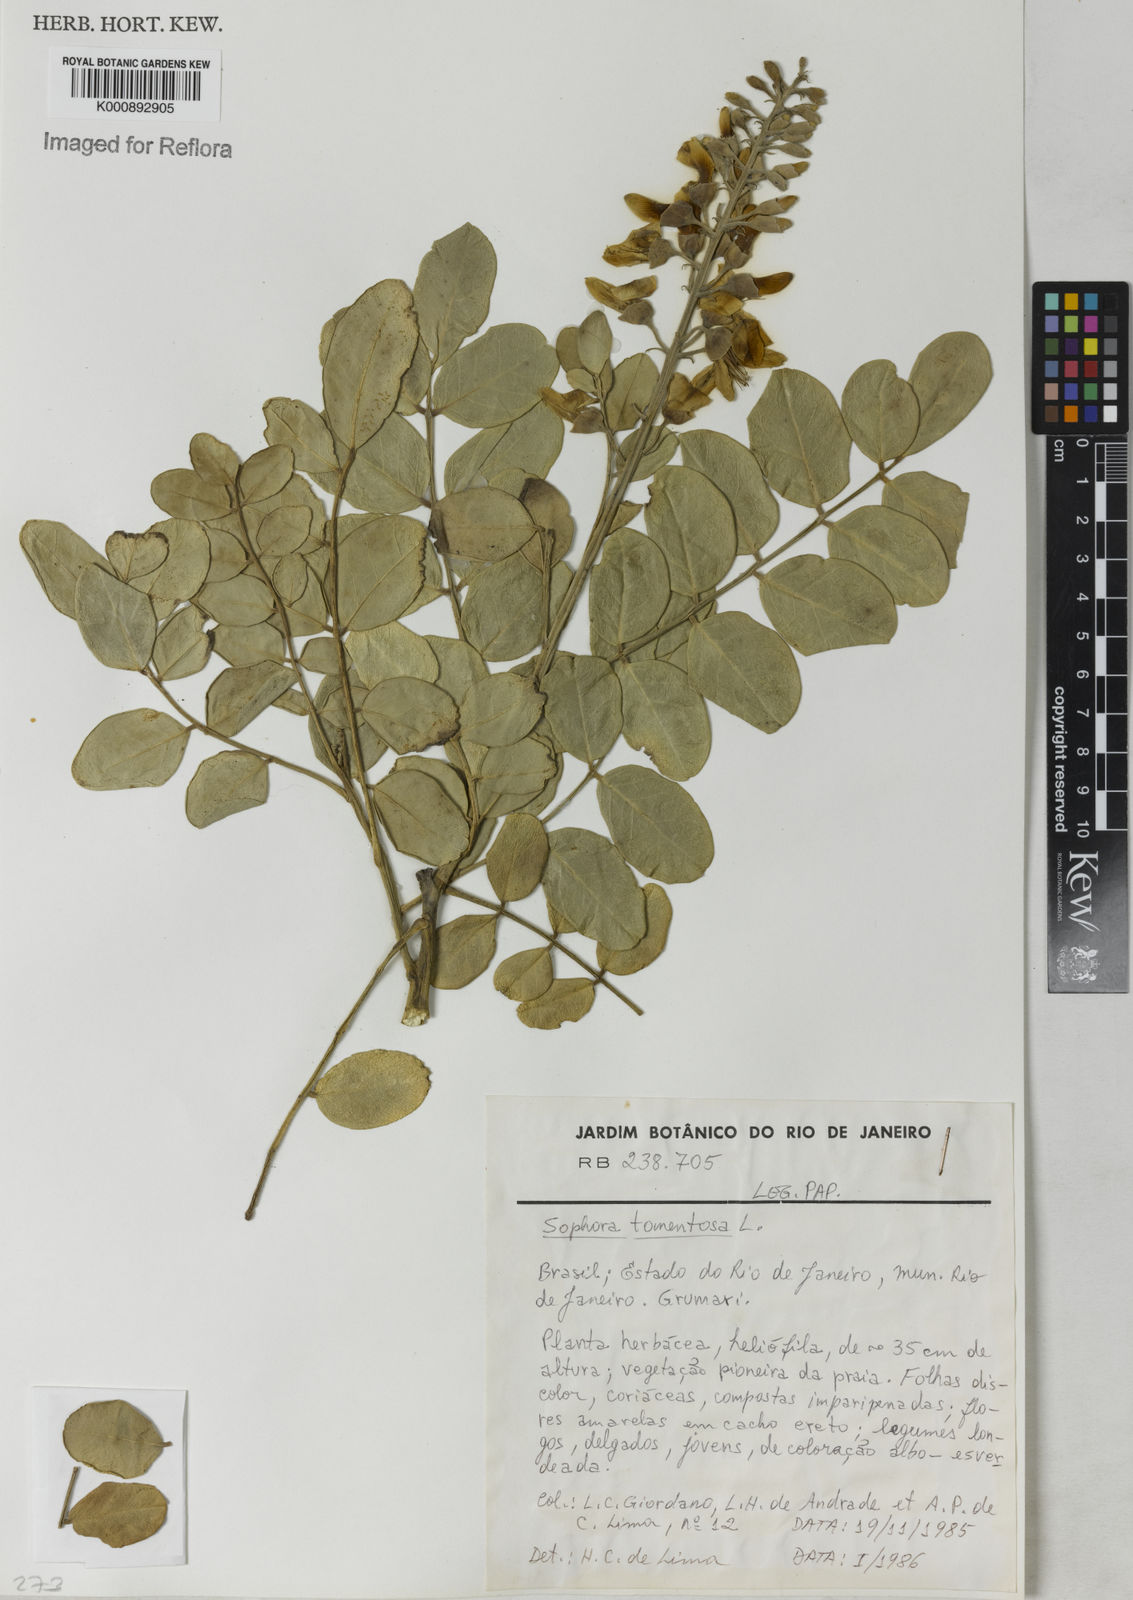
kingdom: Plantae
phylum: Tracheophyta
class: Magnoliopsida
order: Fabales
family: Fabaceae
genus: Sophora
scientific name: Sophora tomentosa
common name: Yellow necklacepod
